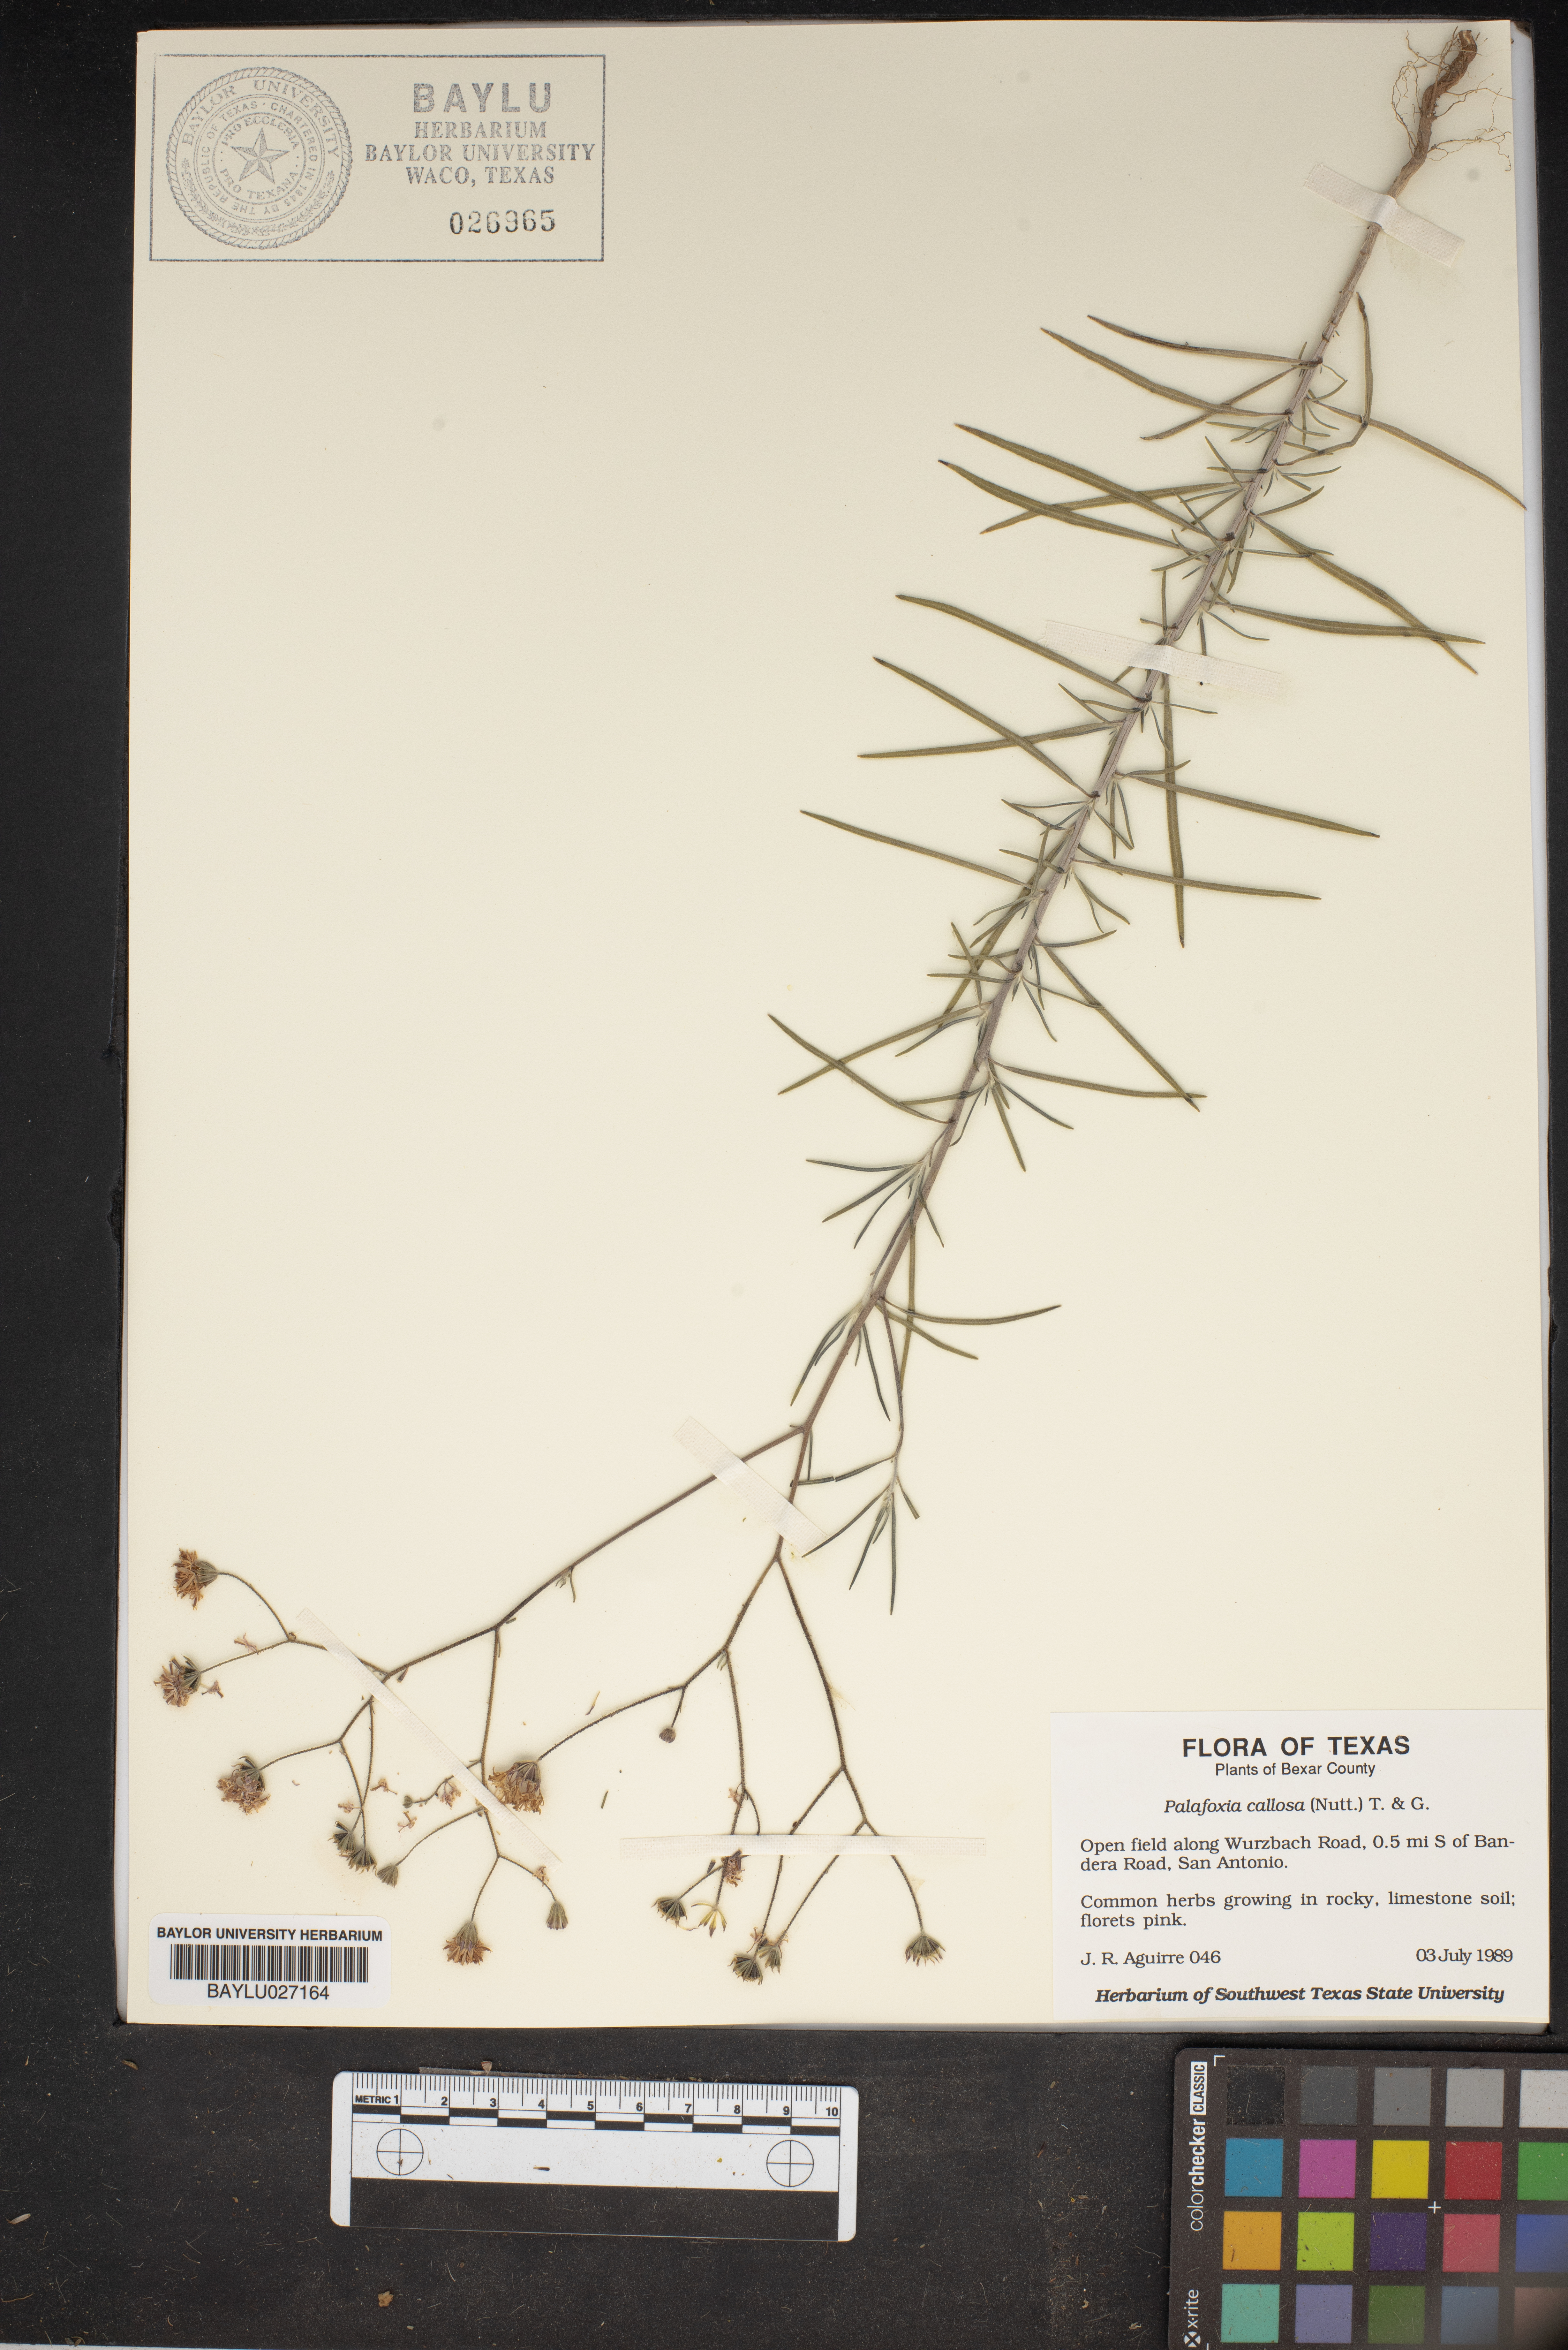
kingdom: Plantae
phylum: Tracheophyta
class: Magnoliopsida
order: Asterales
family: Asteraceae
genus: Palafoxia
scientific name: Palafoxia callosa
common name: Small palafox
